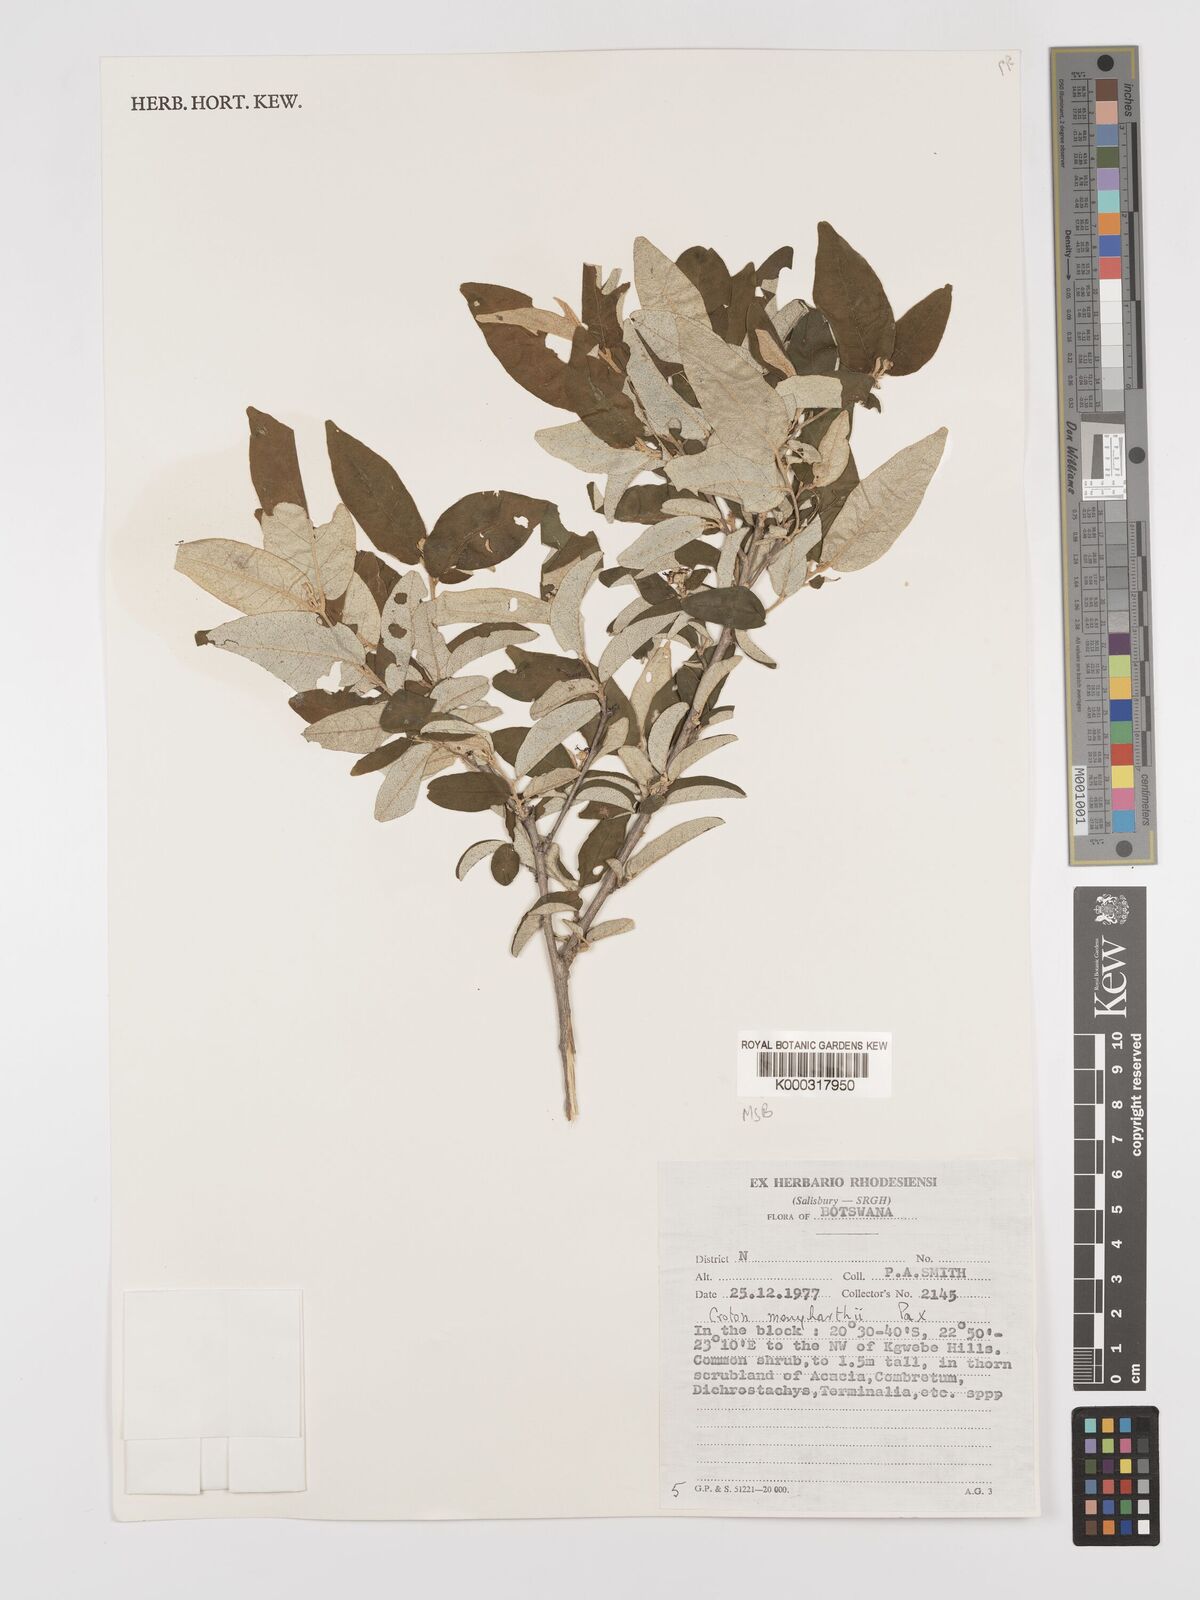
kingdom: Plantae
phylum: Tracheophyta
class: Magnoliopsida
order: Malpighiales
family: Euphorbiaceae
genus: Croton
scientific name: Croton menyharthii
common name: Rough-leaved croton
